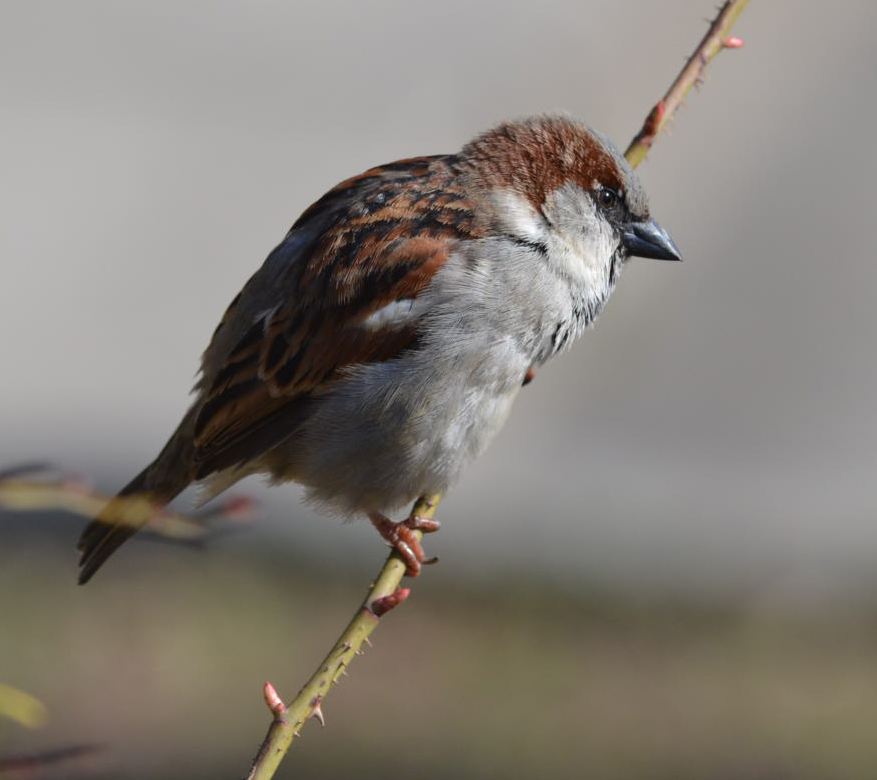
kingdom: Animalia
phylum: Chordata
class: Aves
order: Passeriformes
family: Passeridae
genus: Passer
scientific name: Passer domesticus
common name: House sparrow
